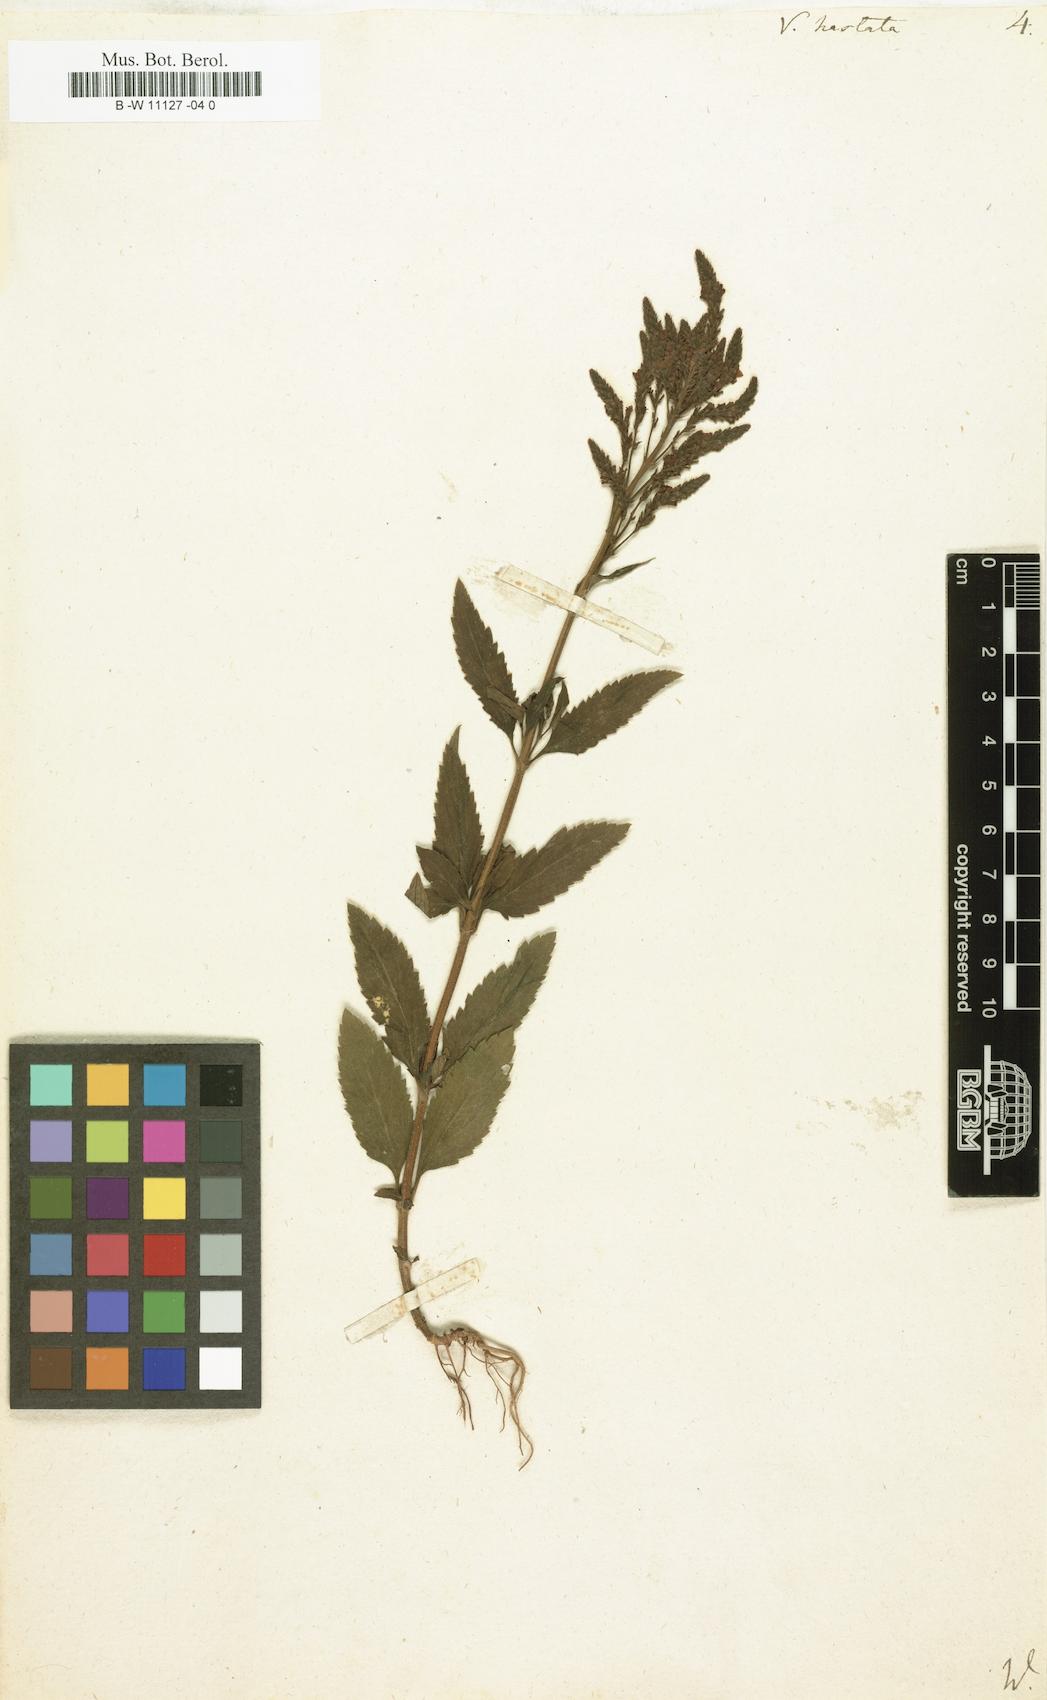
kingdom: Plantae
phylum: Tracheophyta
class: Magnoliopsida
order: Lamiales
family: Verbenaceae
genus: Verbena
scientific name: Verbena hastata
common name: American blue vervain
